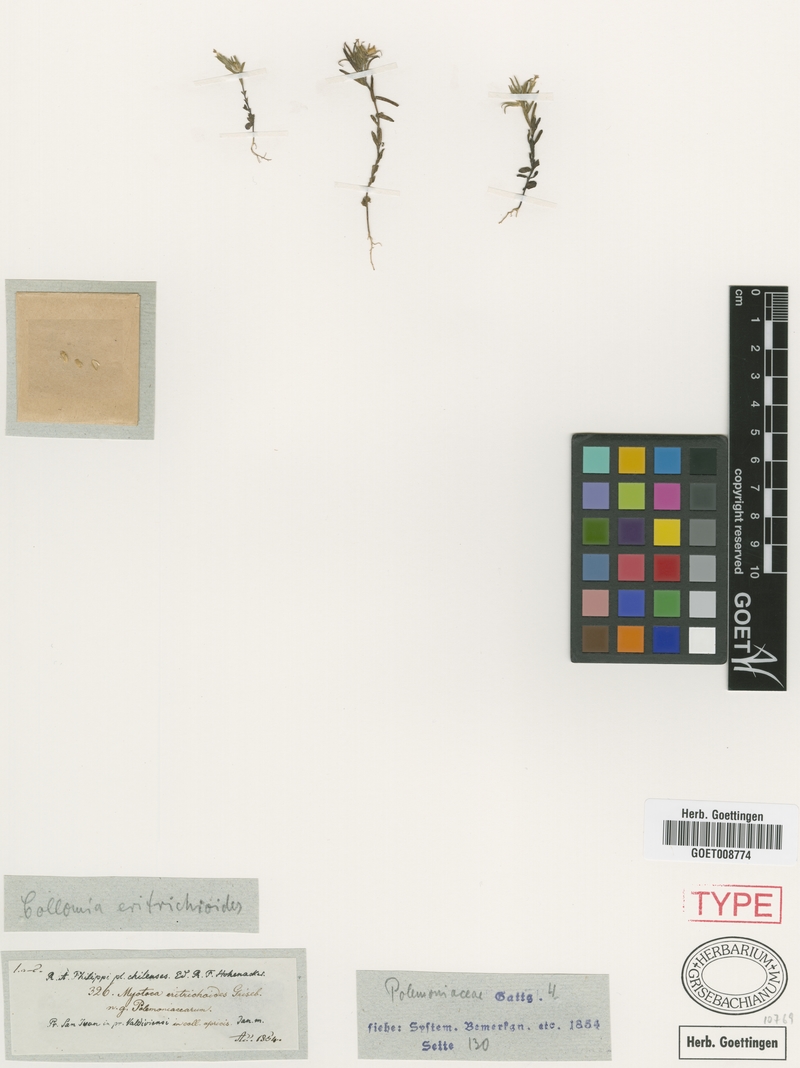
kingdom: Plantae
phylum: Tracheophyta
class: Magnoliopsida
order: Ericales
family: Polemoniaceae
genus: Phlox
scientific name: Phlox gracilis
